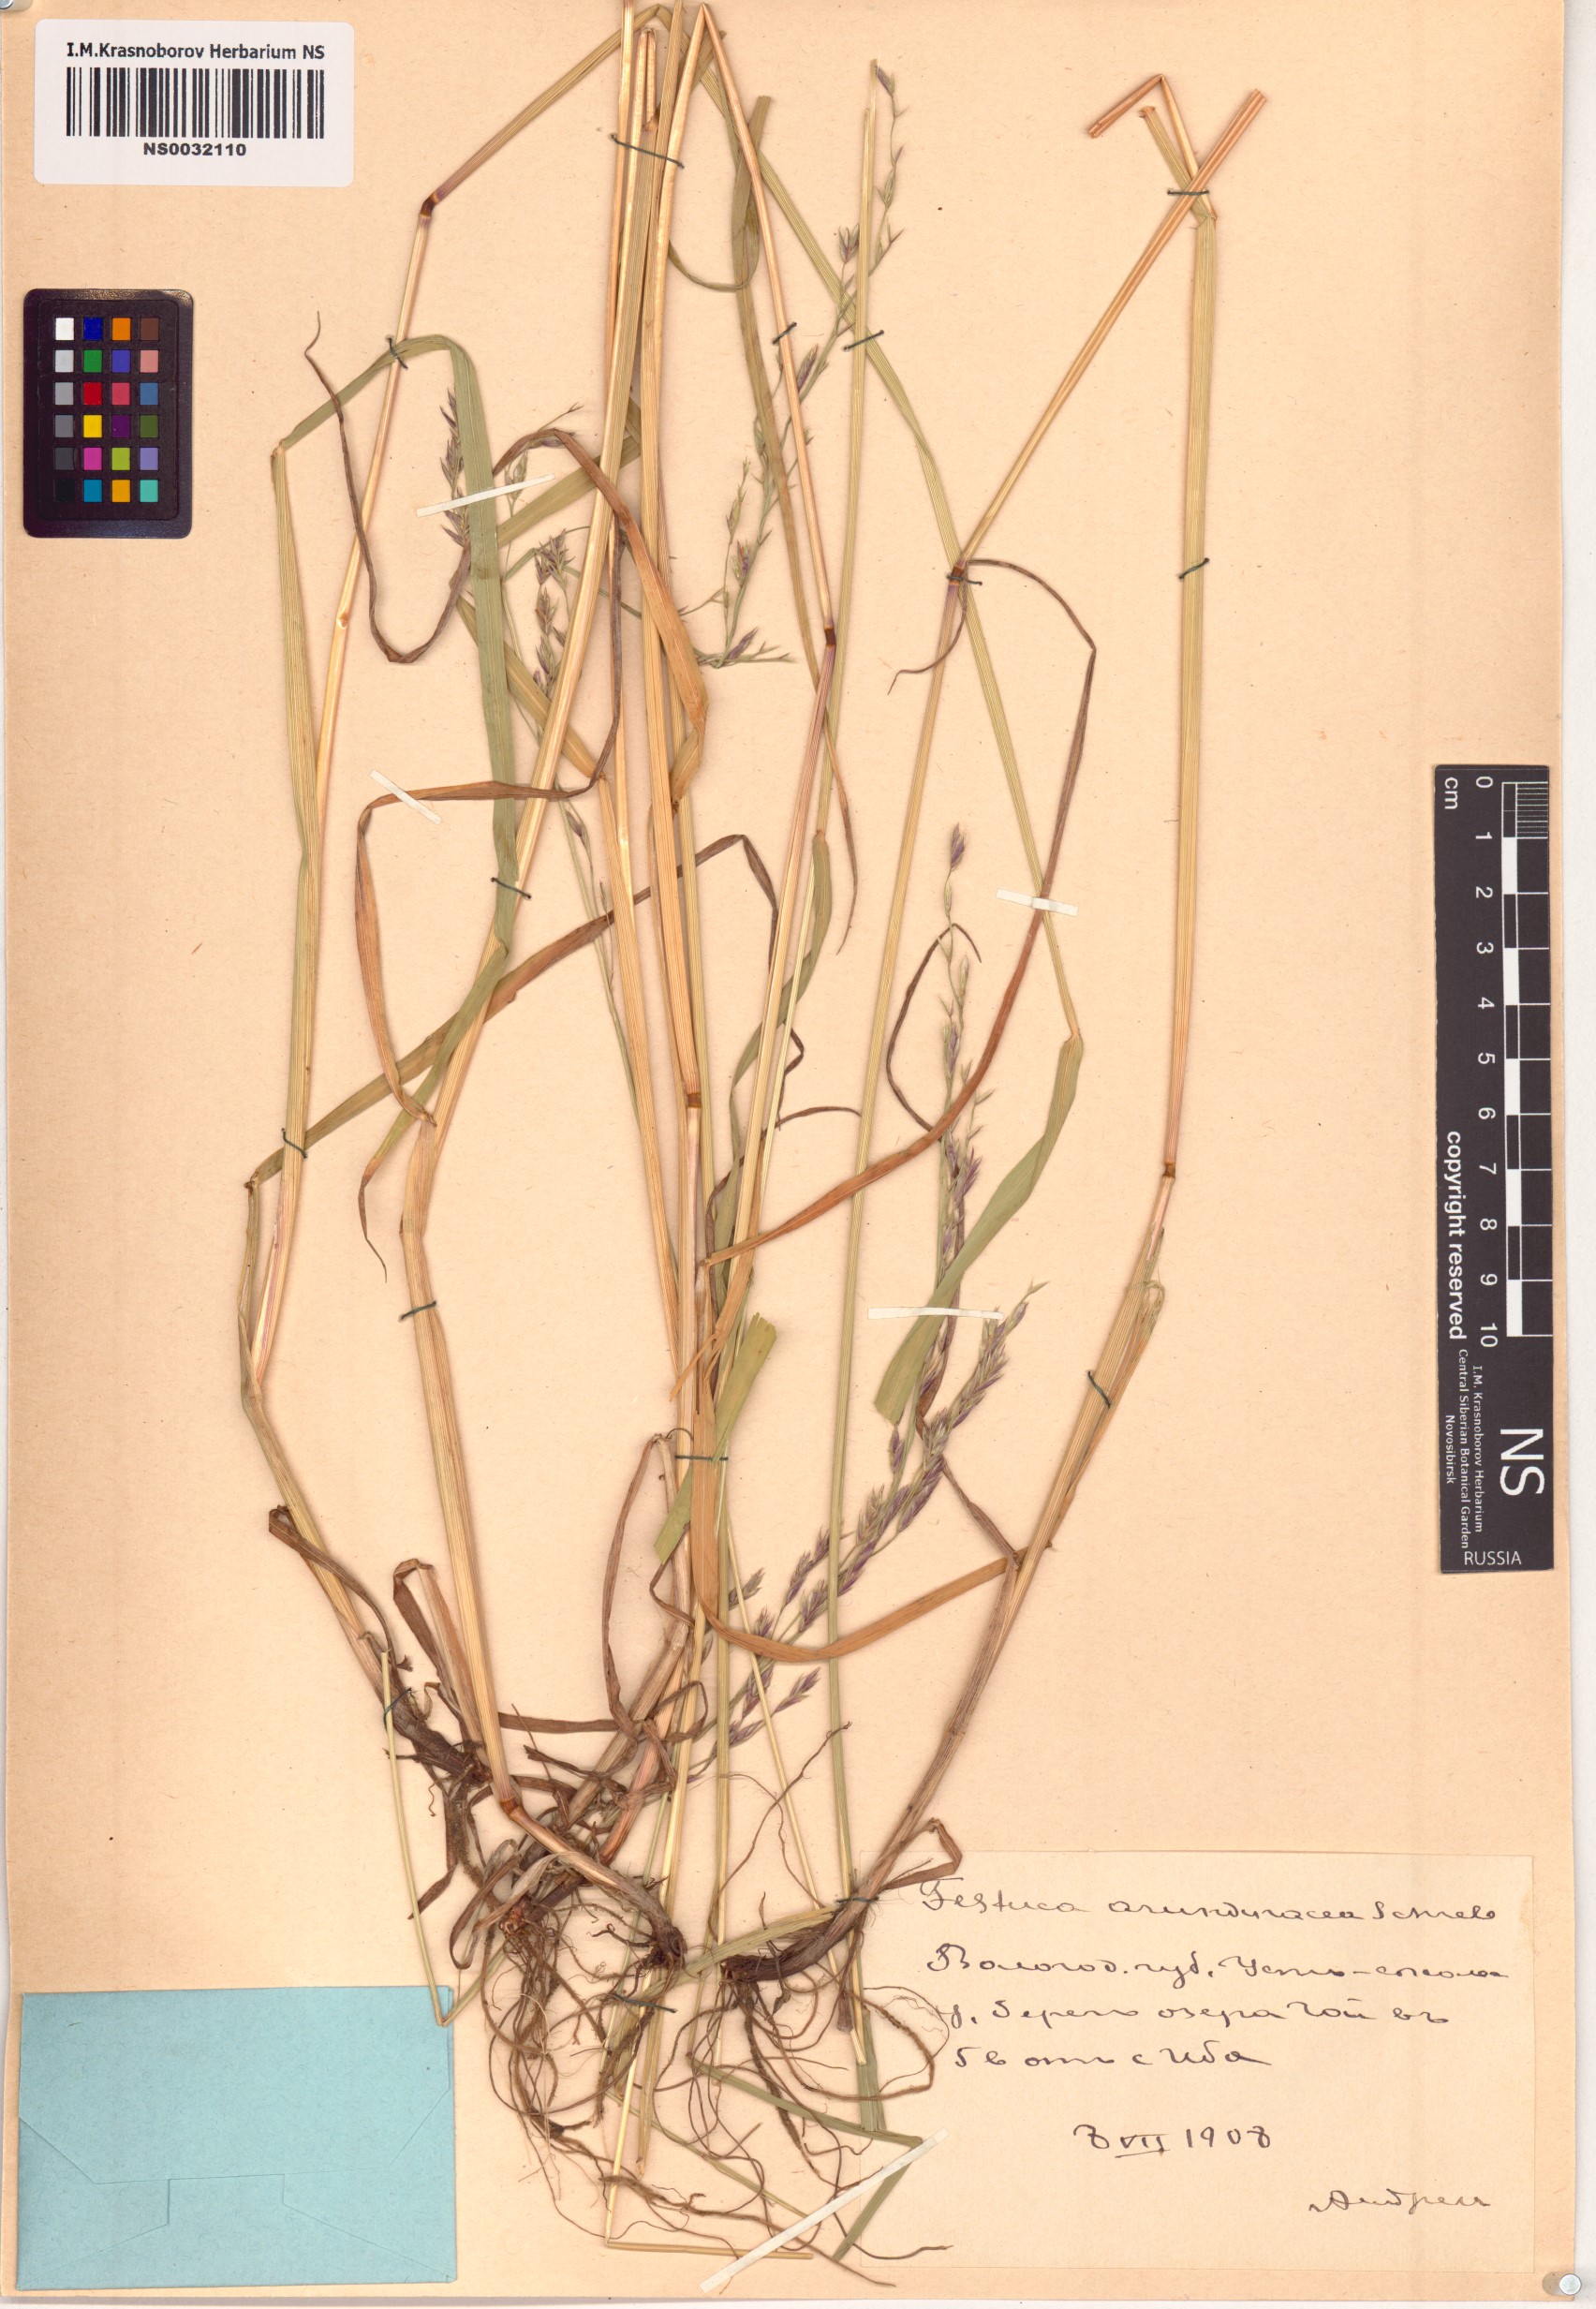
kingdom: Plantae
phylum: Tracheophyta
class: Liliopsida
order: Poales
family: Poaceae
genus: Lolium
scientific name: Lolium arundinaceum
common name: Reed fescue
